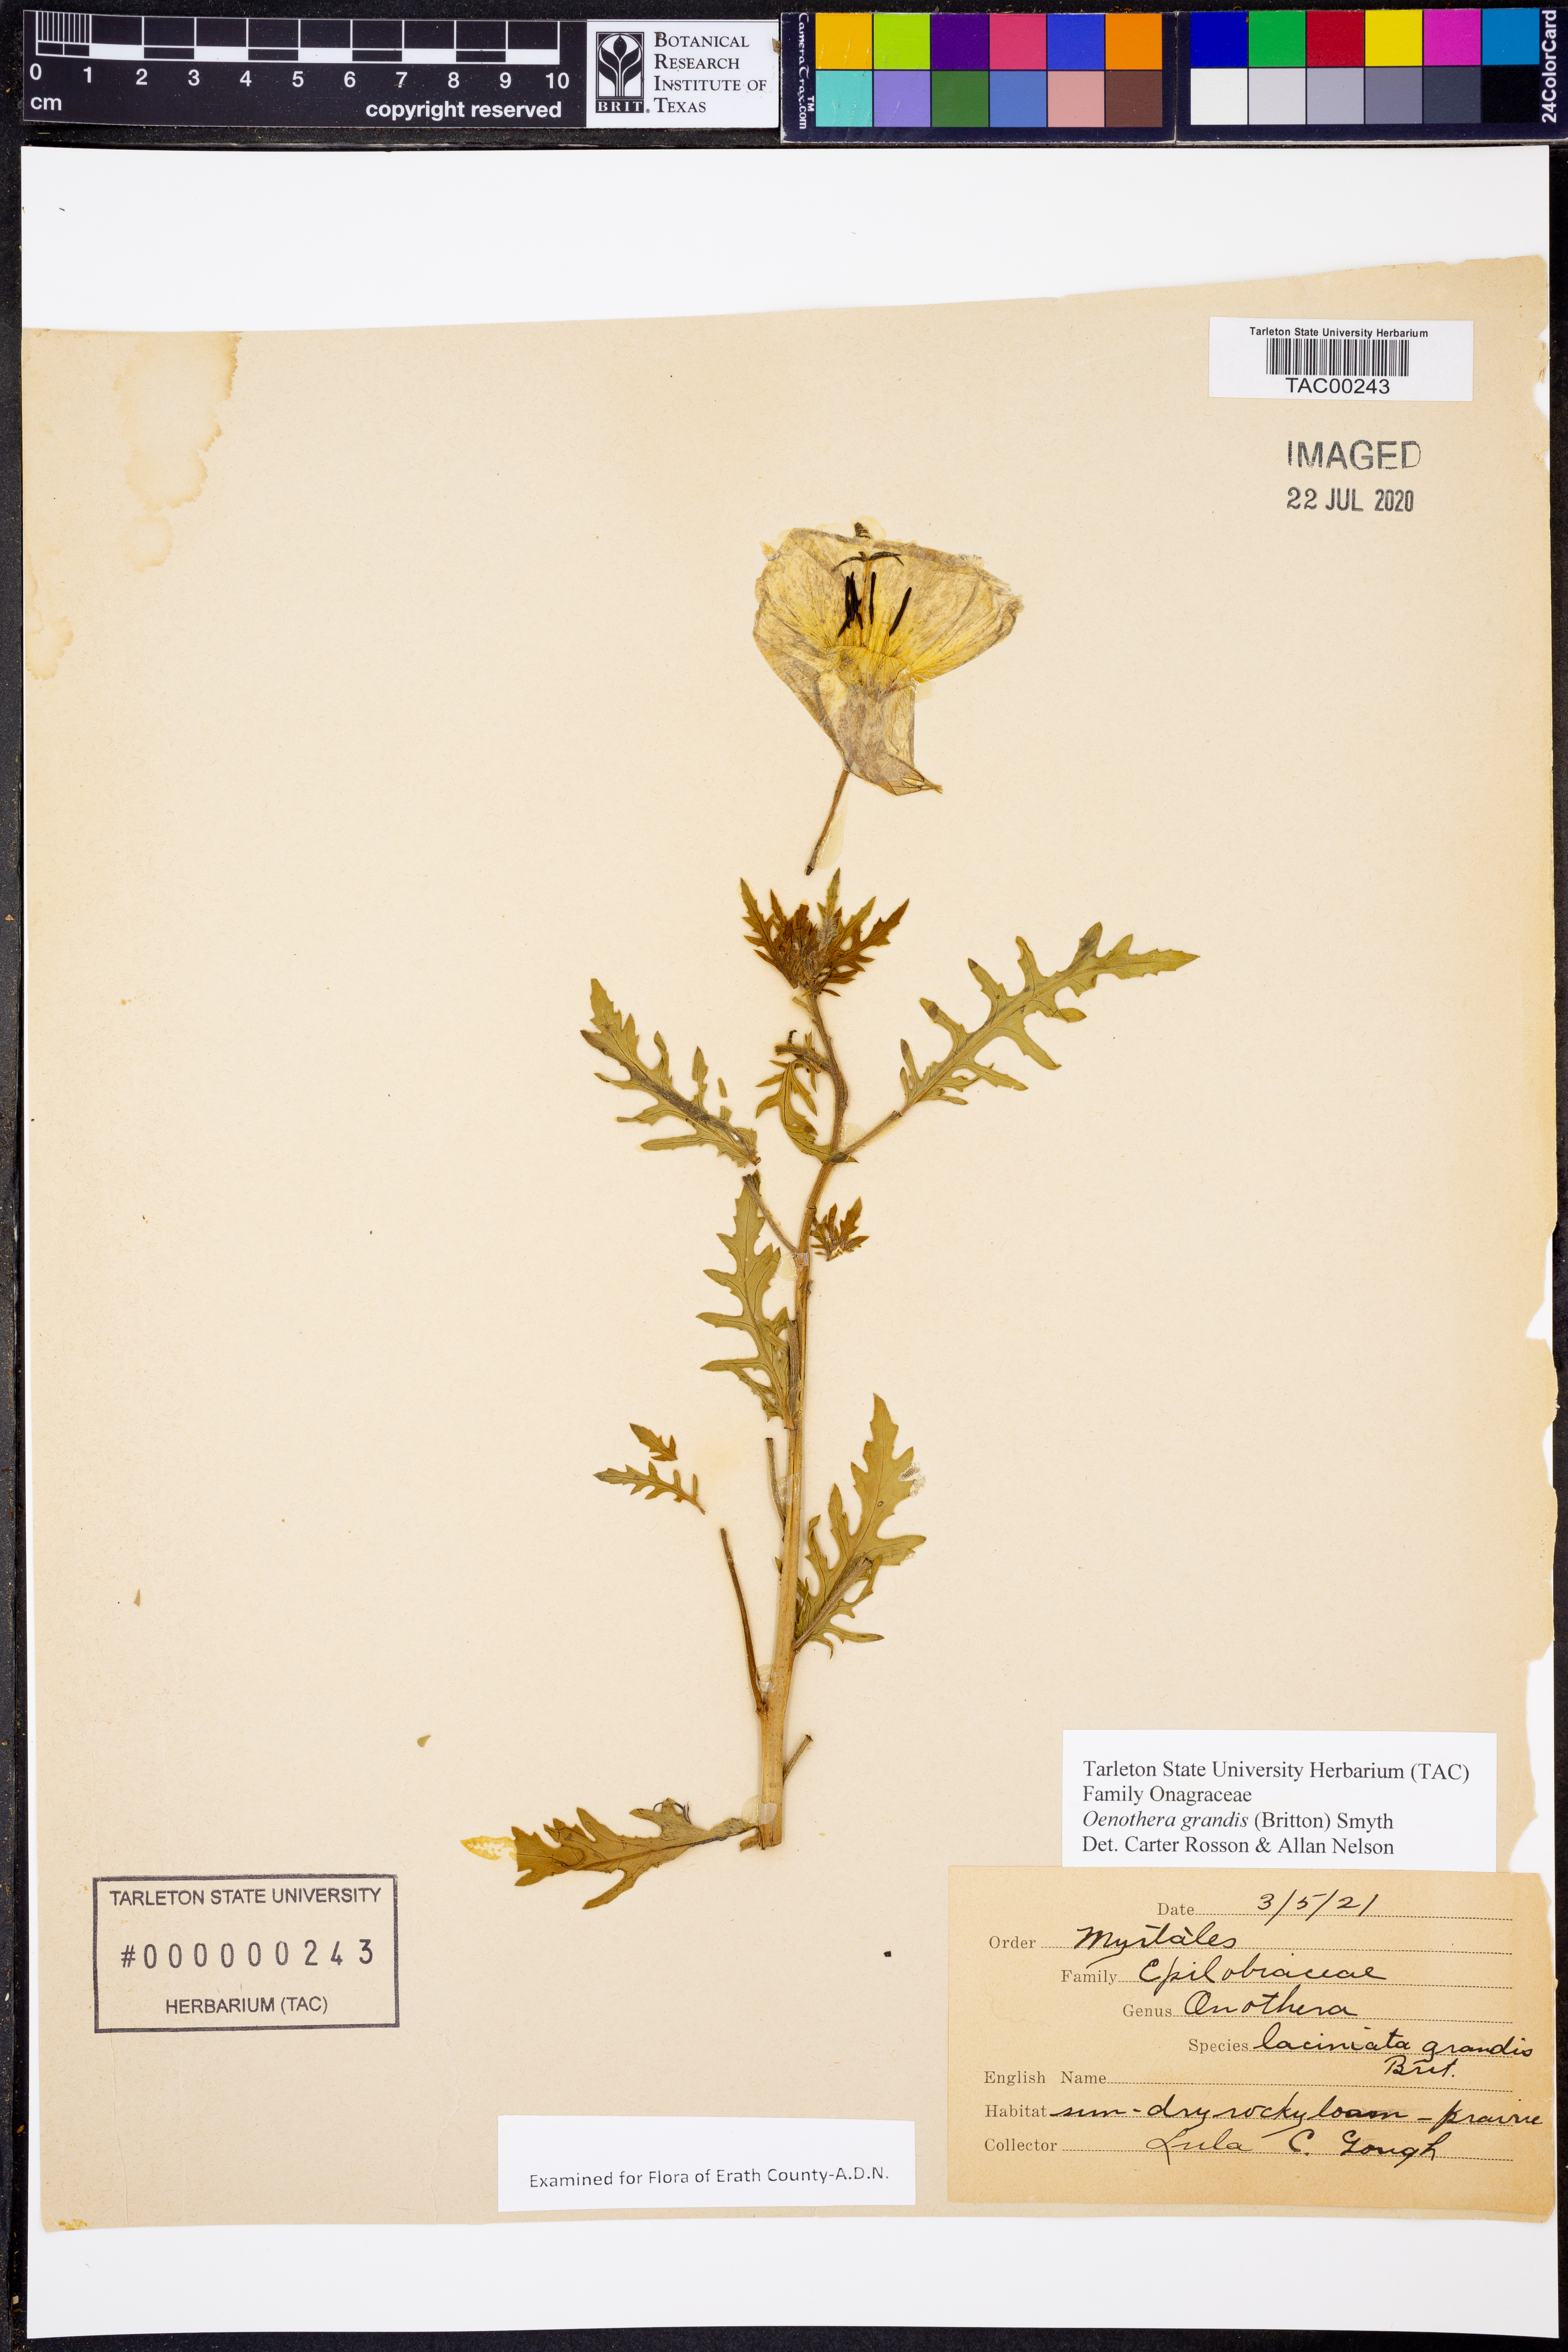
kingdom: Plantae
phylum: Tracheophyta
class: Magnoliopsida
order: Myrtales
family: Onagraceae
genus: Oenothera
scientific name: Oenothera grandis
